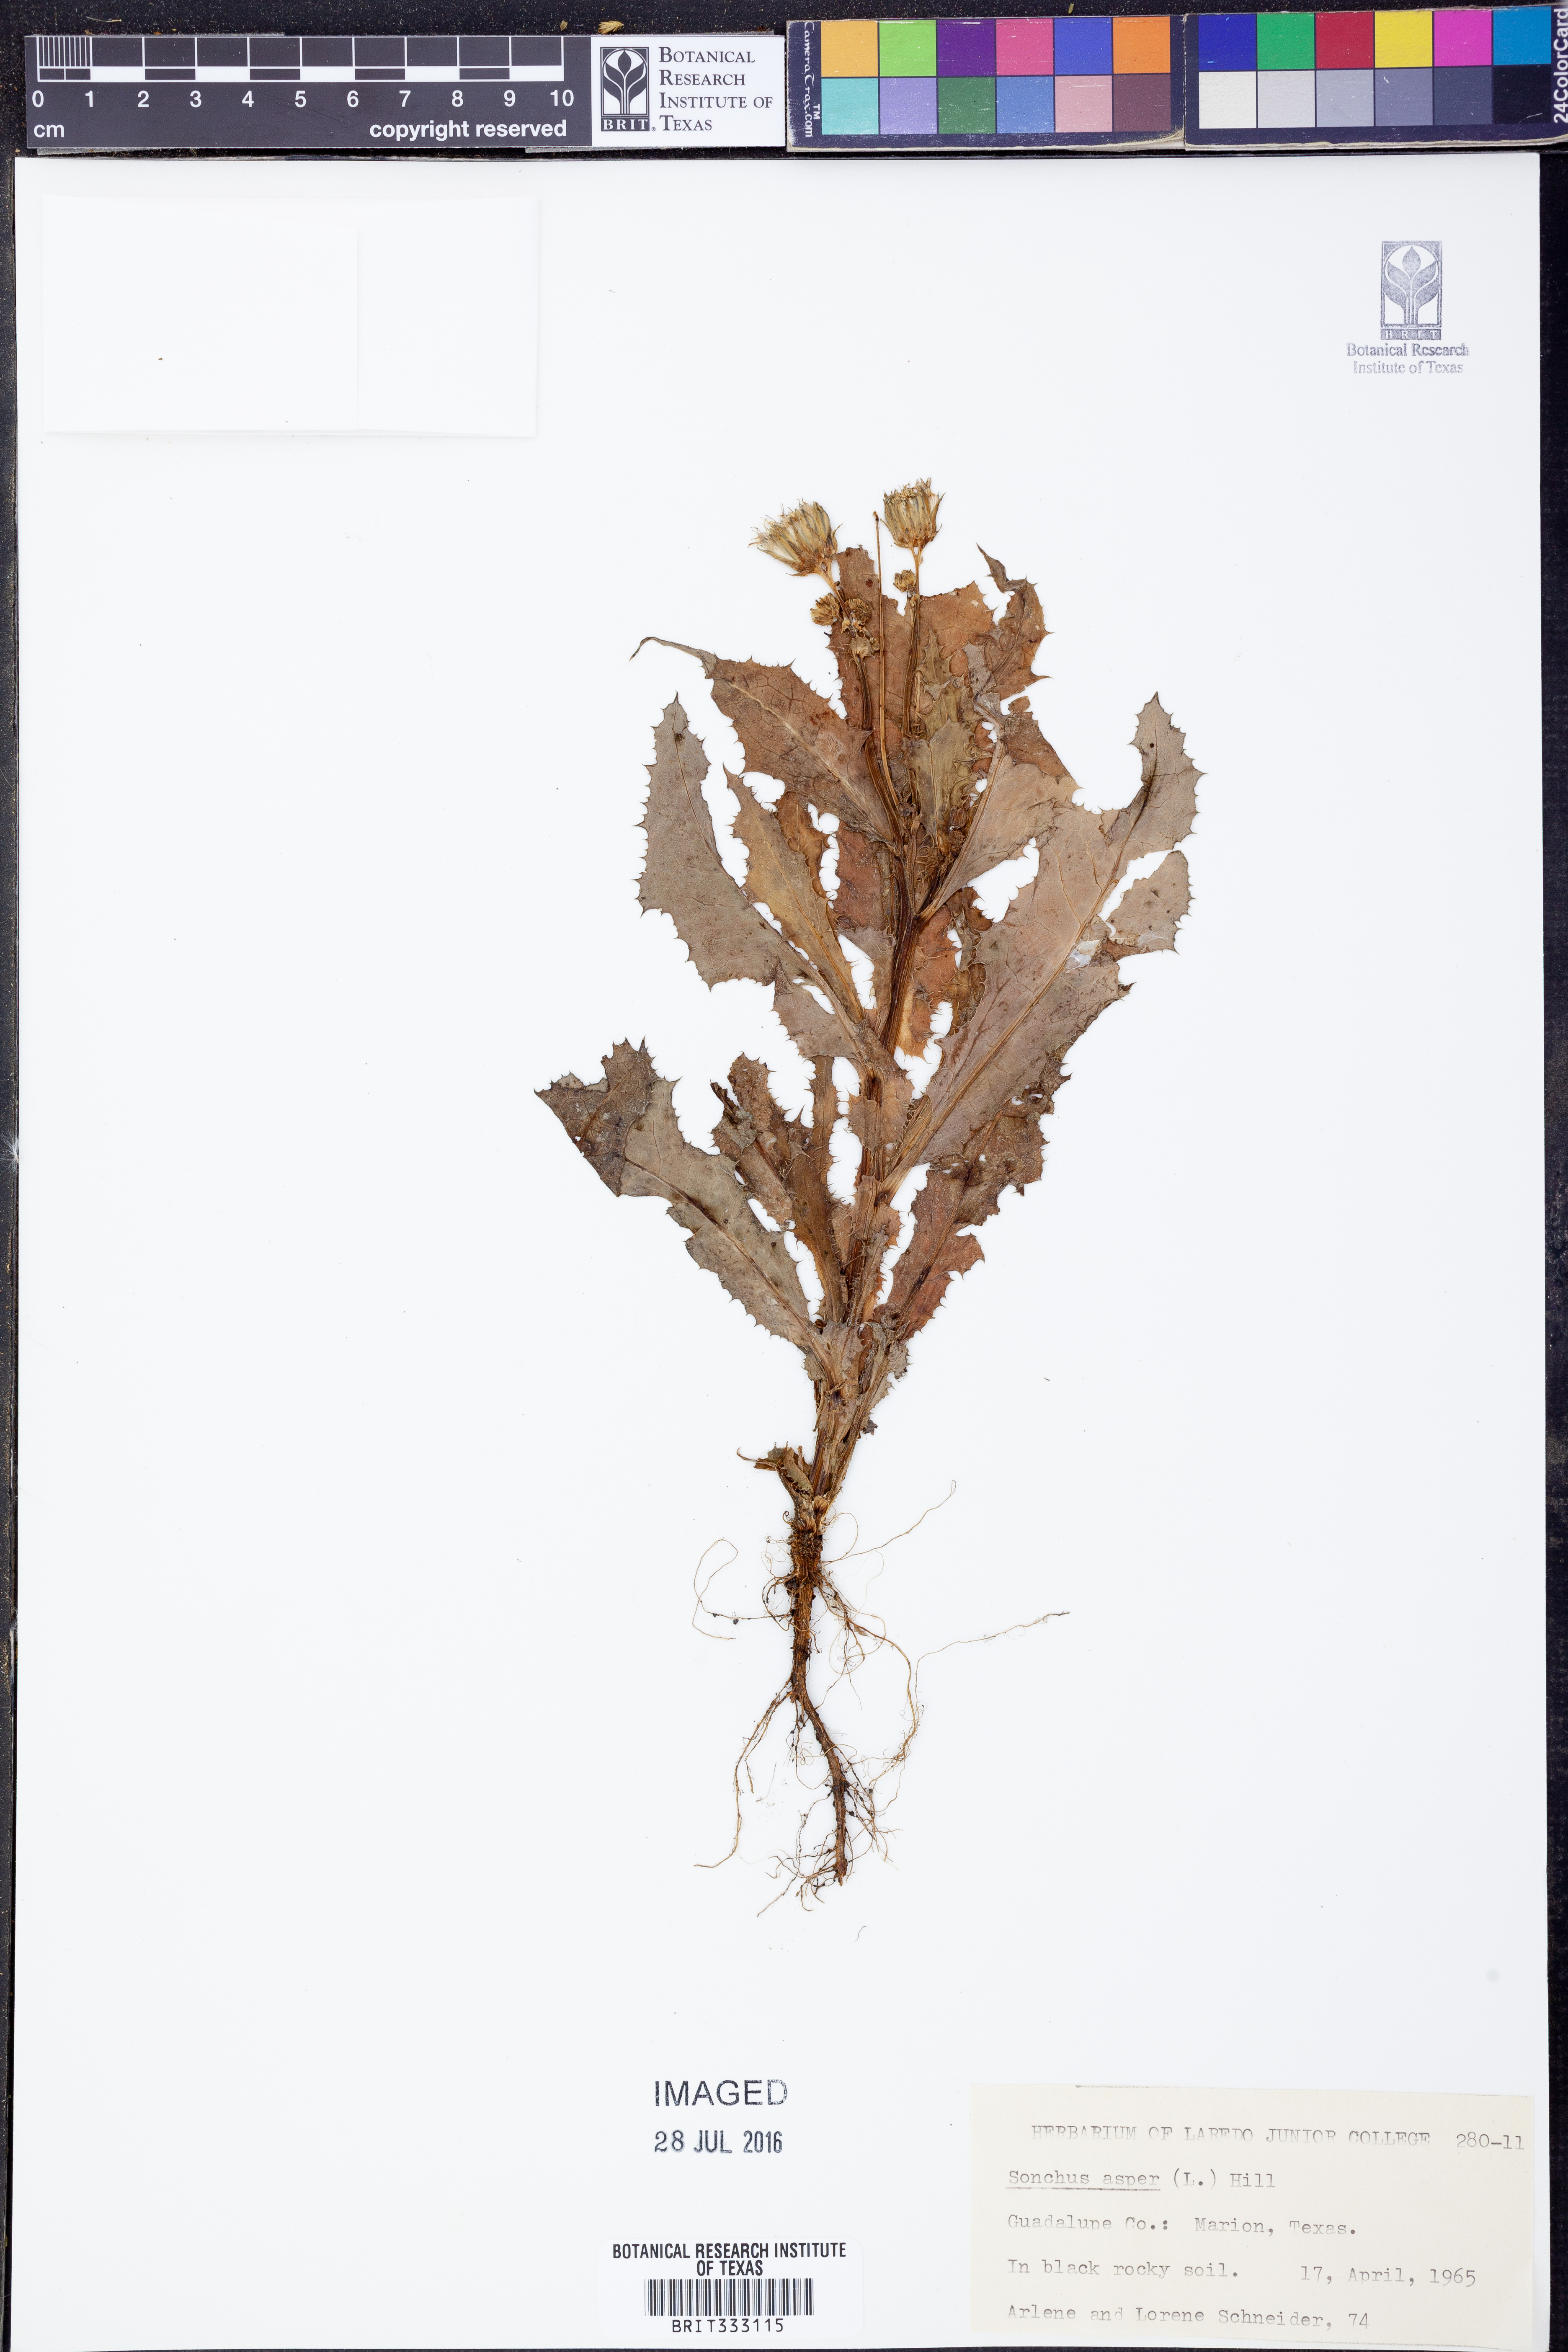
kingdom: Plantae
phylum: Tracheophyta
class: Magnoliopsida
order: Asterales
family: Asteraceae
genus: Sonchus
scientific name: Sonchus asper
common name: Prickly sow-thistle
